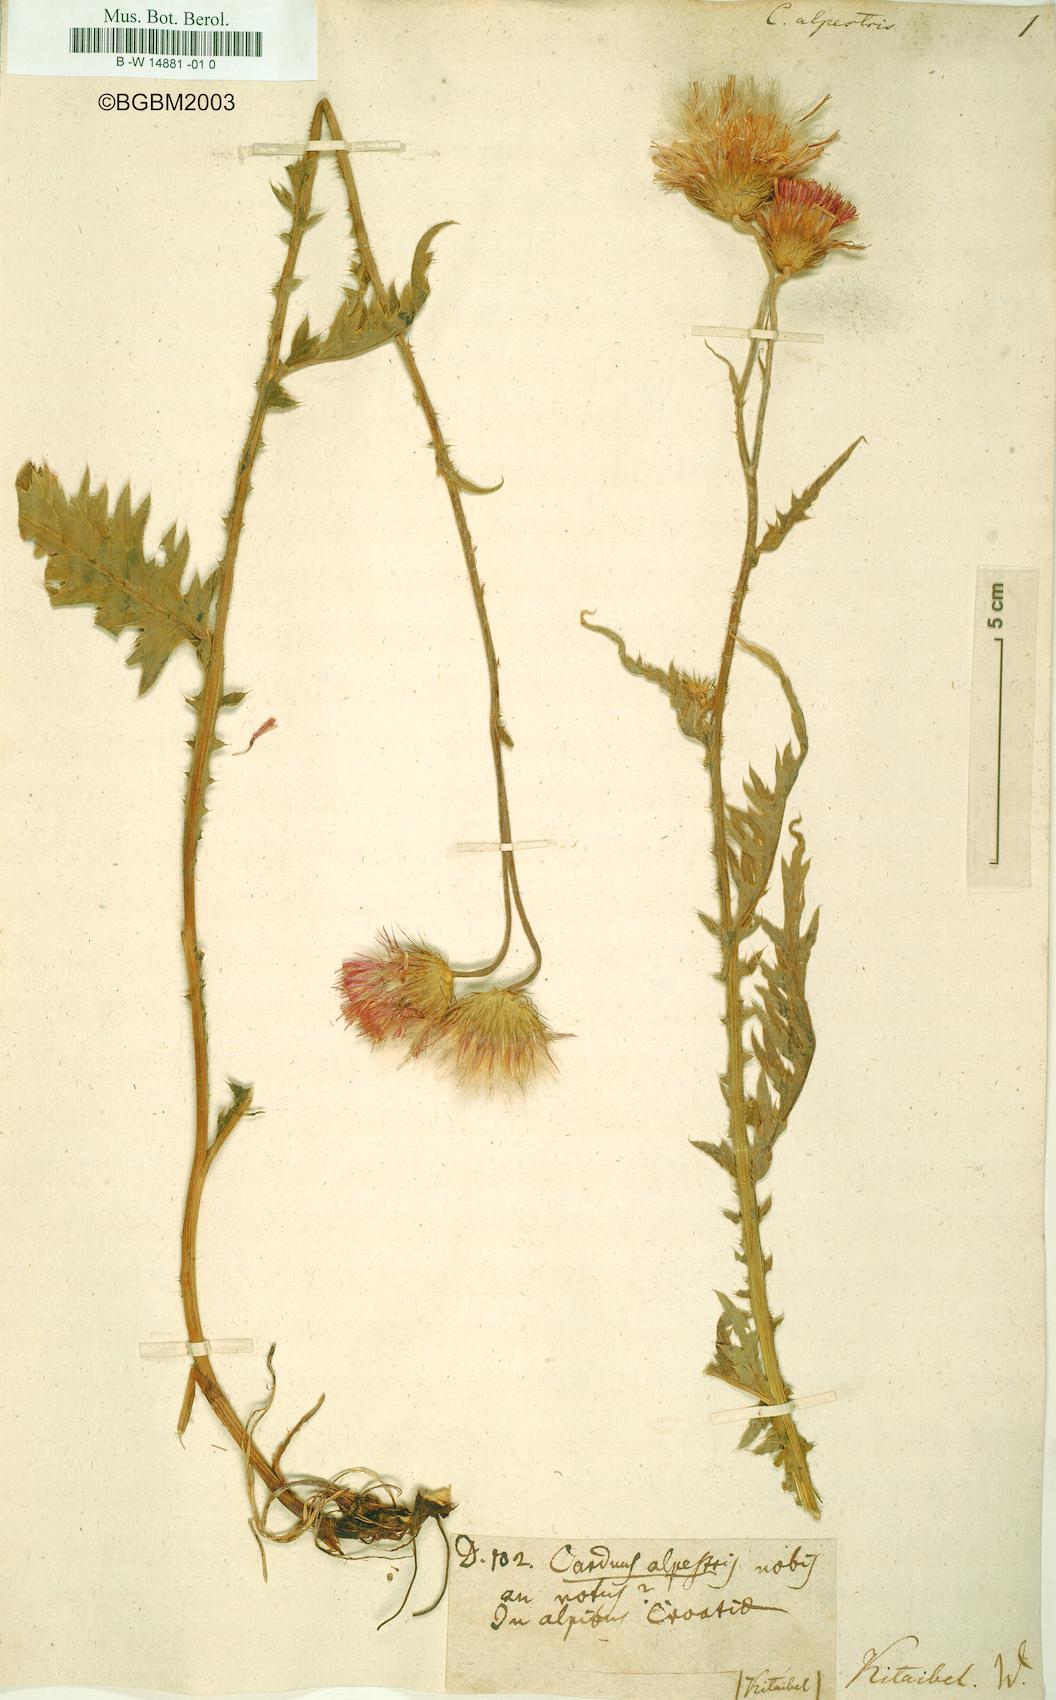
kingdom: Plantae
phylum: Tracheophyta
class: Magnoliopsida
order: Asterales
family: Asteraceae
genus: Carduus
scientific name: Carduus carduelis
